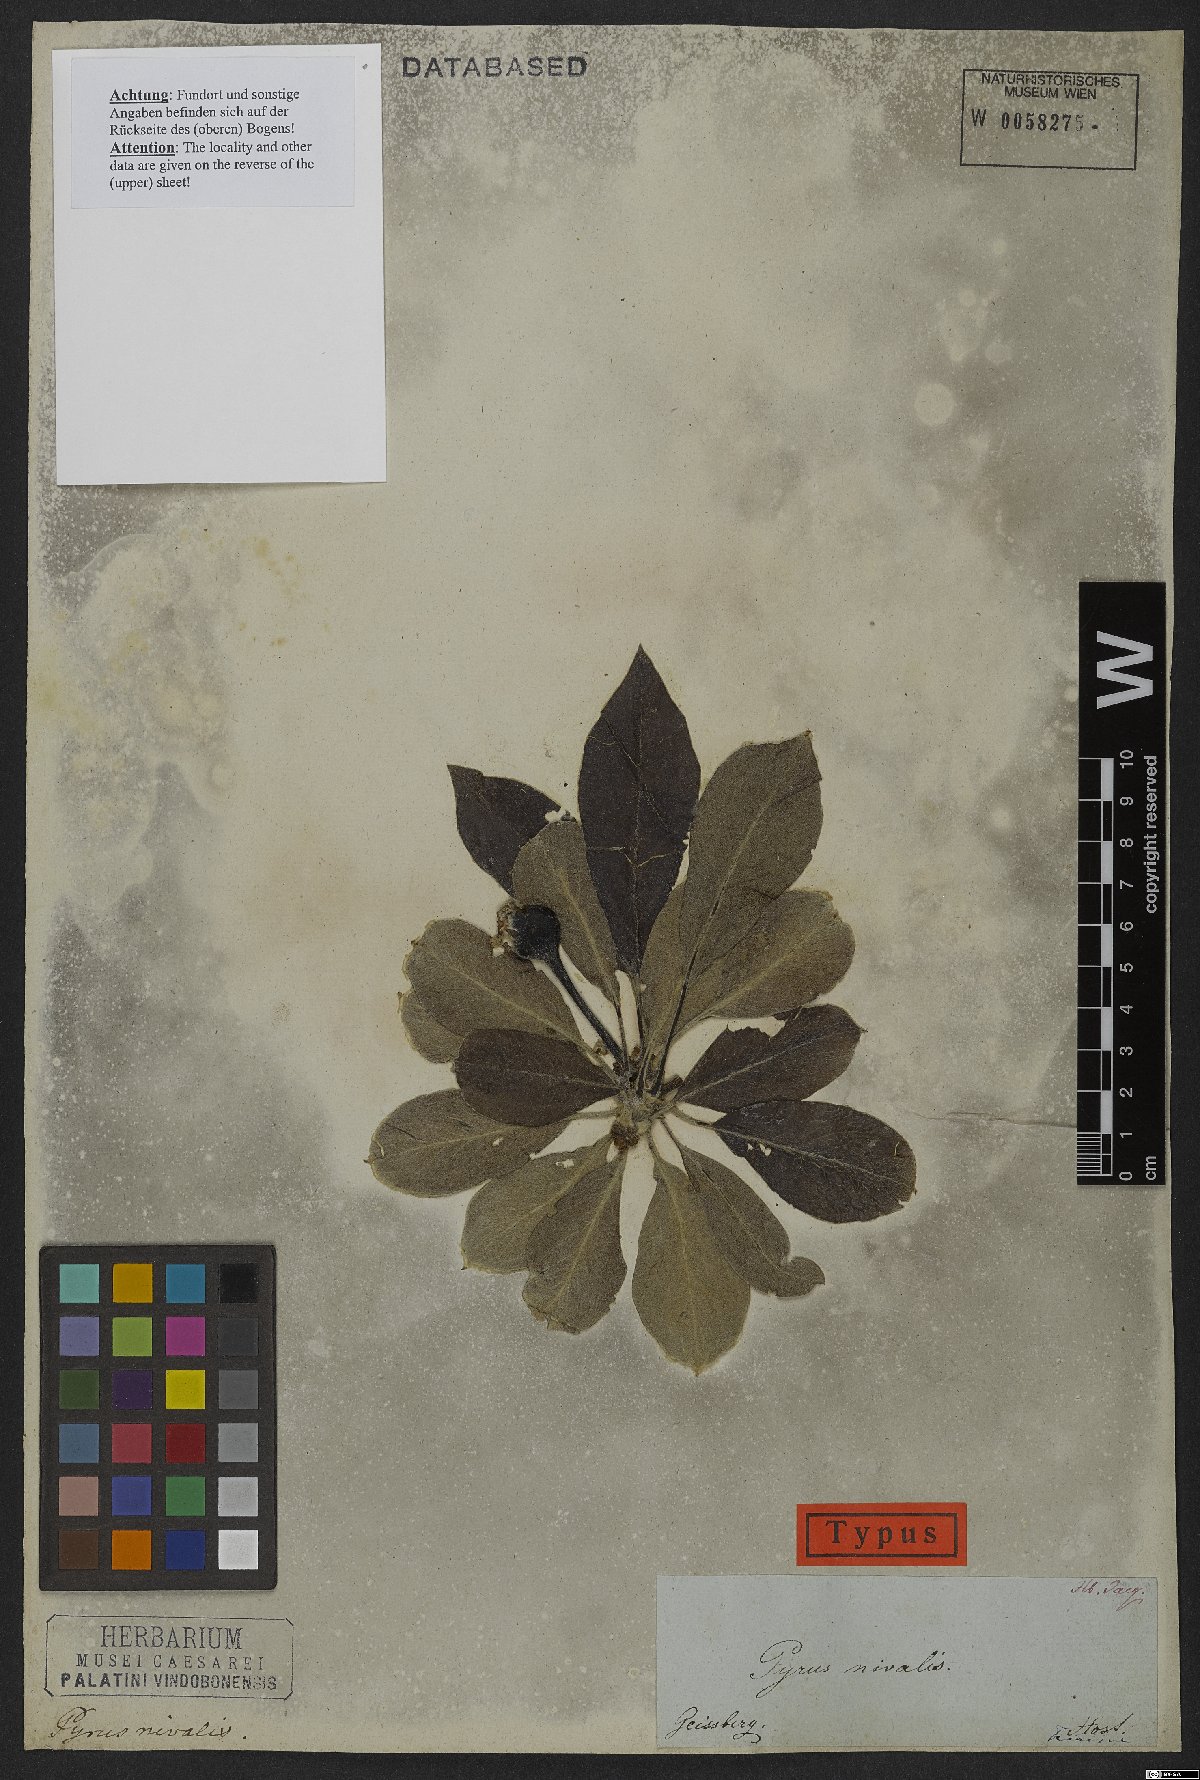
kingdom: Plantae
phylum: Tracheophyta
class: Magnoliopsida
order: Rosales
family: Rosaceae
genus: Pyrus
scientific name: Pyrus nivalis
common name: Snow pear
